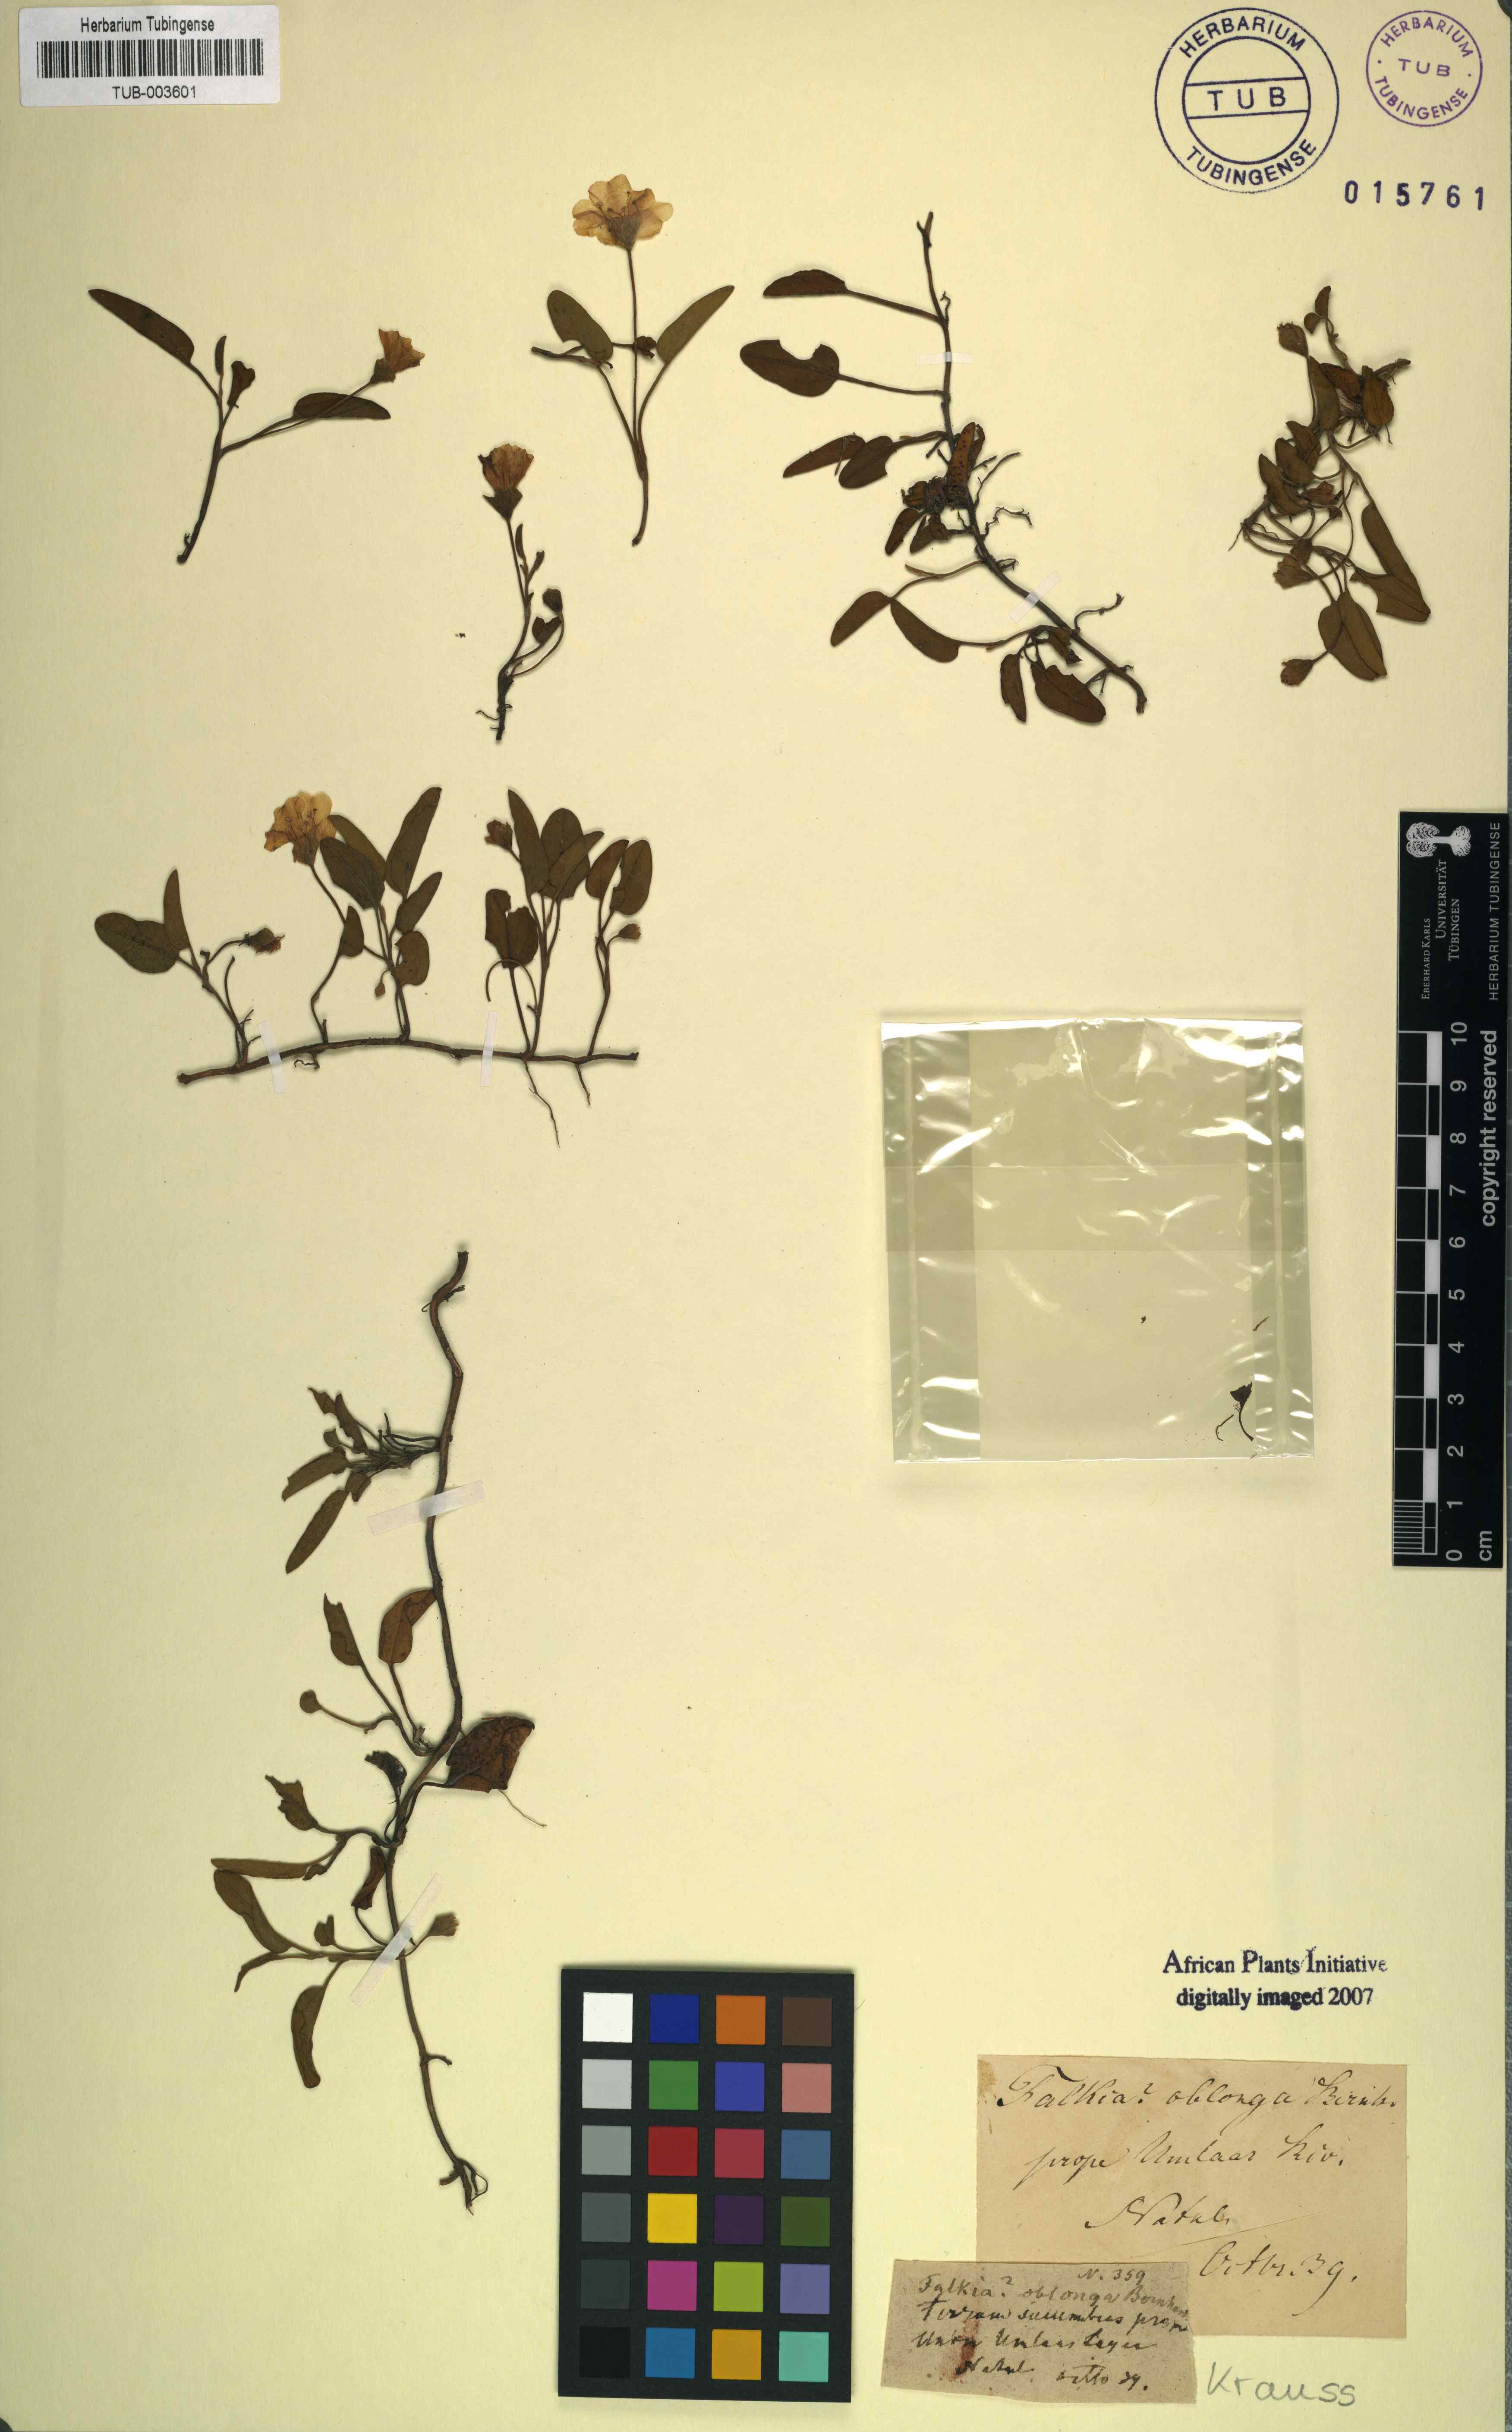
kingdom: Plantae
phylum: Tracheophyta
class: Magnoliopsida
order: Solanales
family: Convolvulaceae
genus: Falkia
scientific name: Falkia oblonga
